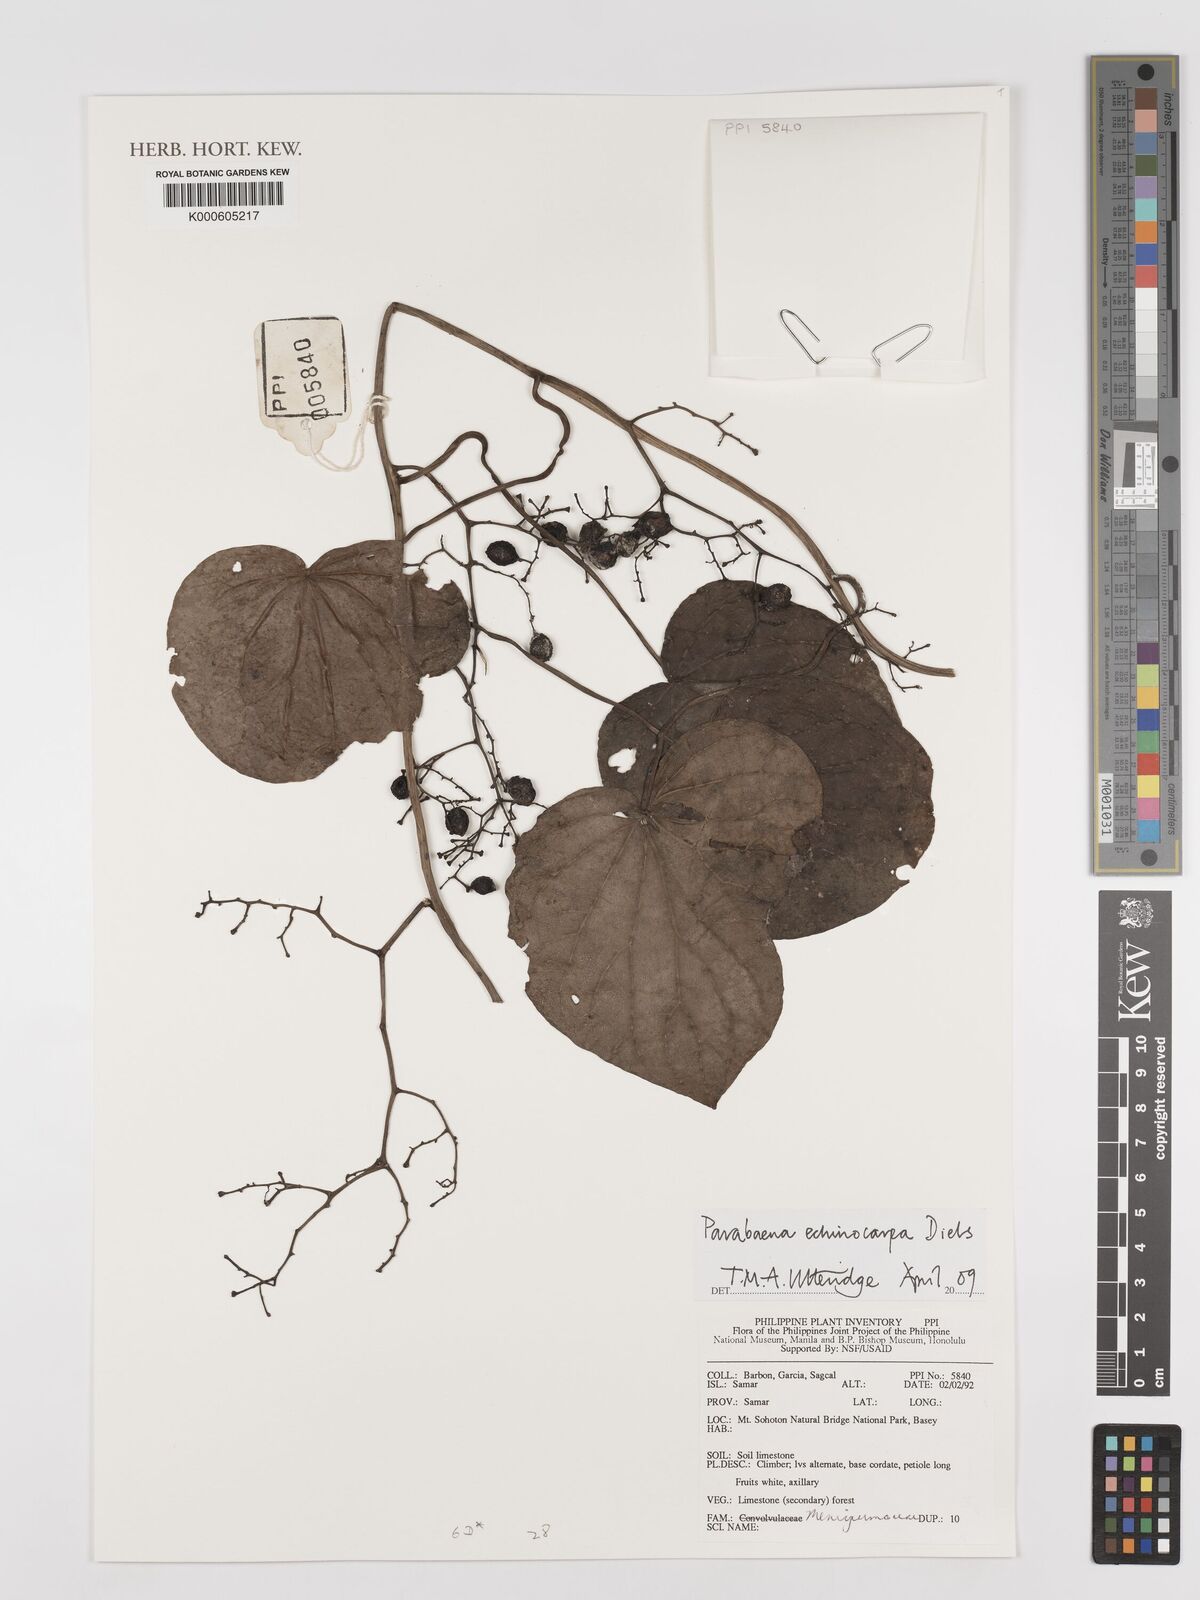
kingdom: Plantae
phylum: Tracheophyta
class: Magnoliopsida
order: Ranunculales
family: Menispermaceae
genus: Parabaena
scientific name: Parabaena echinocarpa
